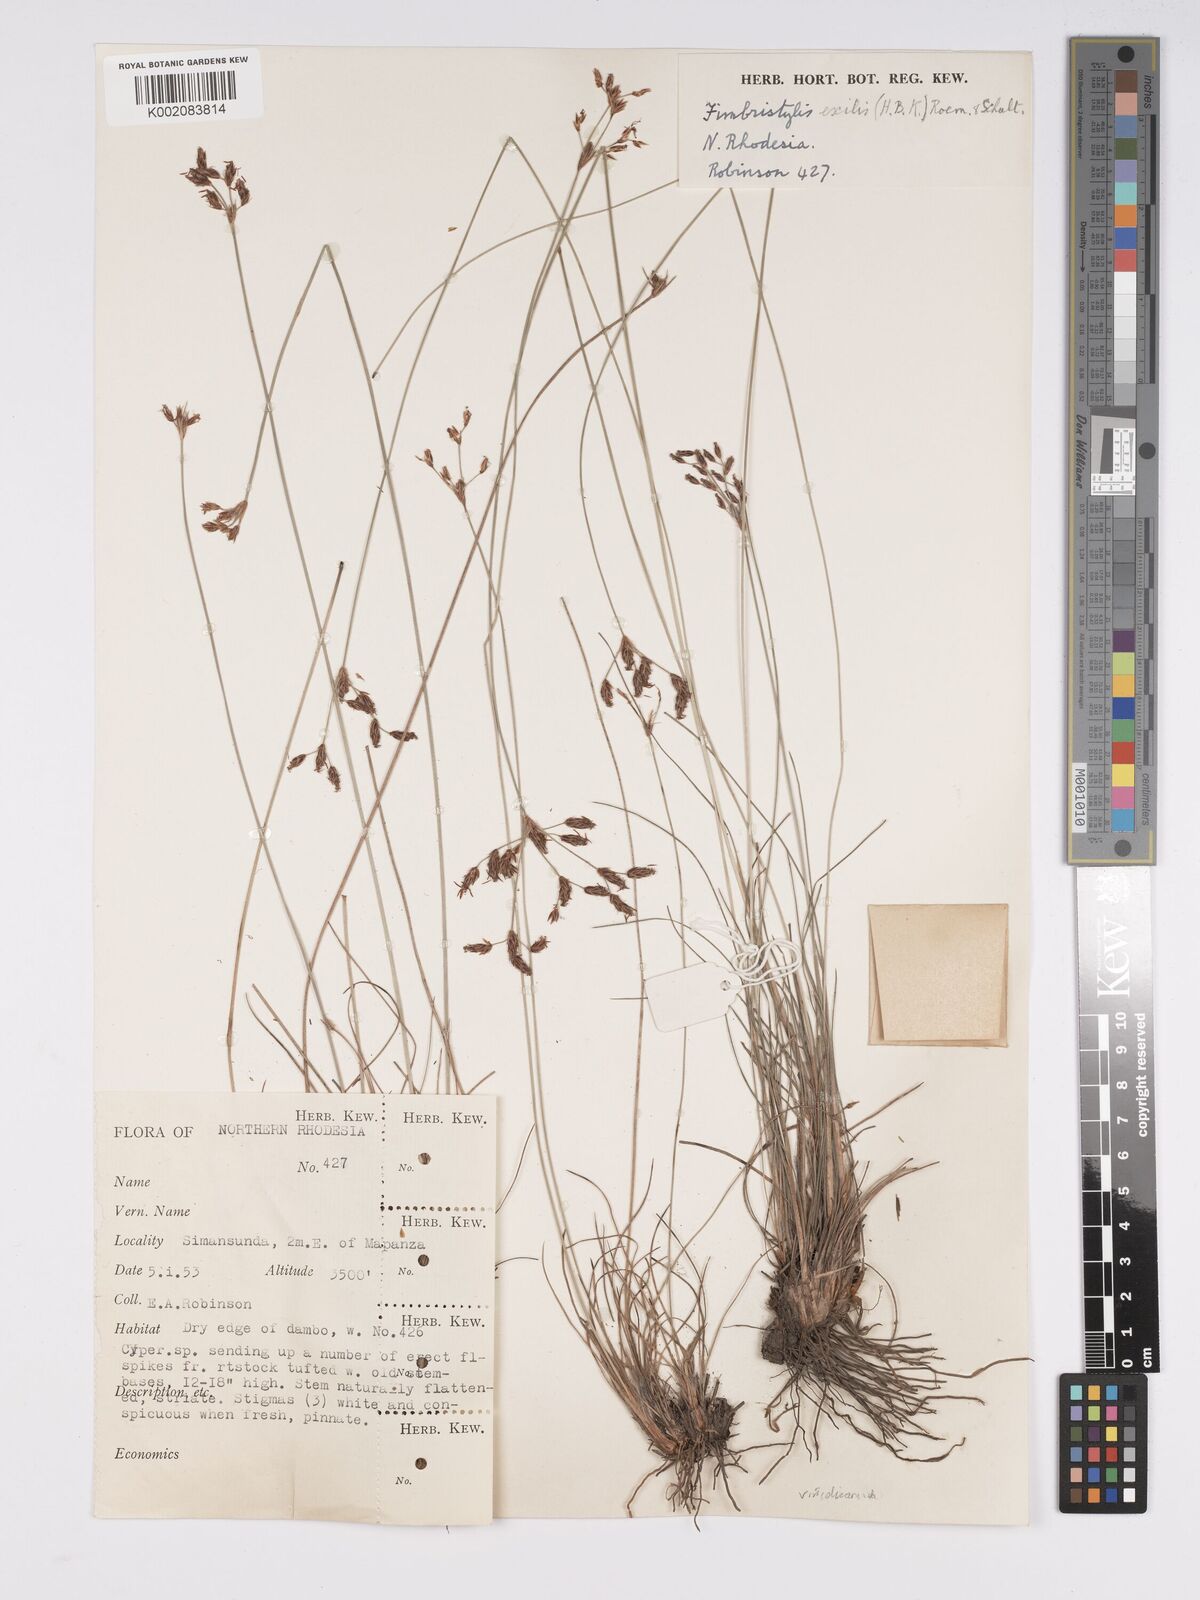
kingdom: Plantae
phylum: Tracheophyta
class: Liliopsida
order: Poales
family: Cyperaceae
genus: Bulbostylis
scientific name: Bulbostylis hispidula
